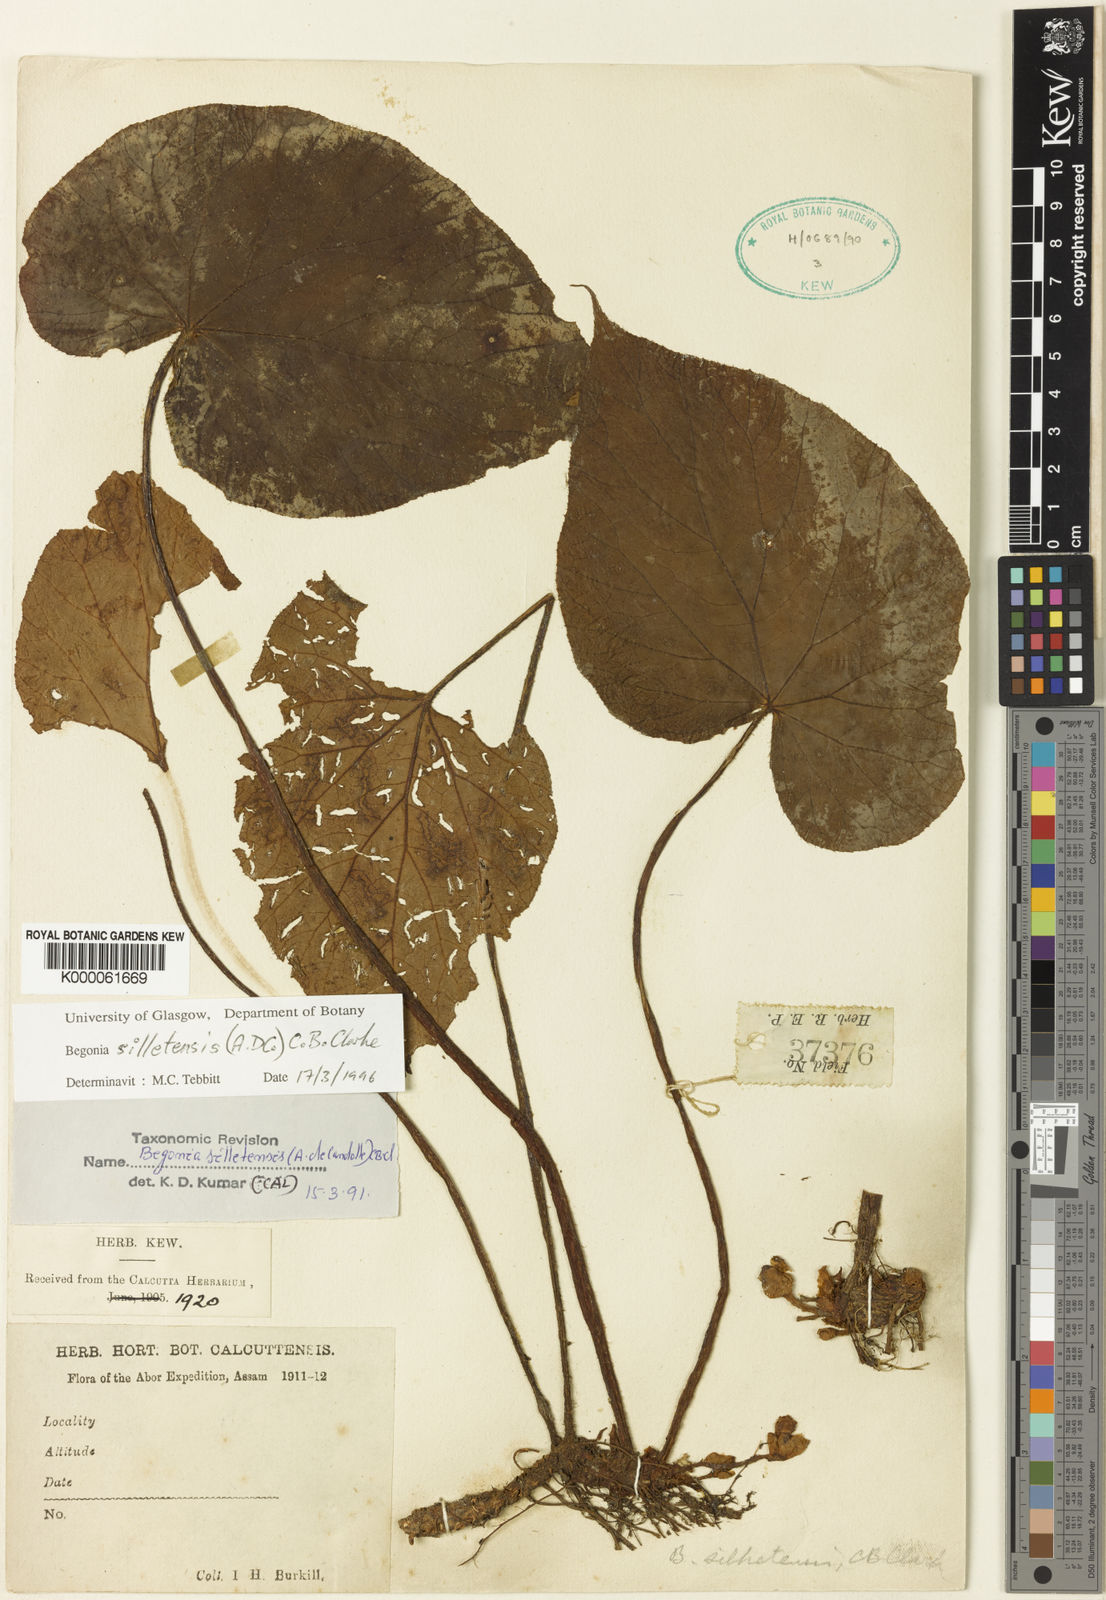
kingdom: Plantae
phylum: Tracheophyta
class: Magnoliopsida
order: Cucurbitales
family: Begoniaceae
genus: Begonia
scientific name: Begonia silletensis
